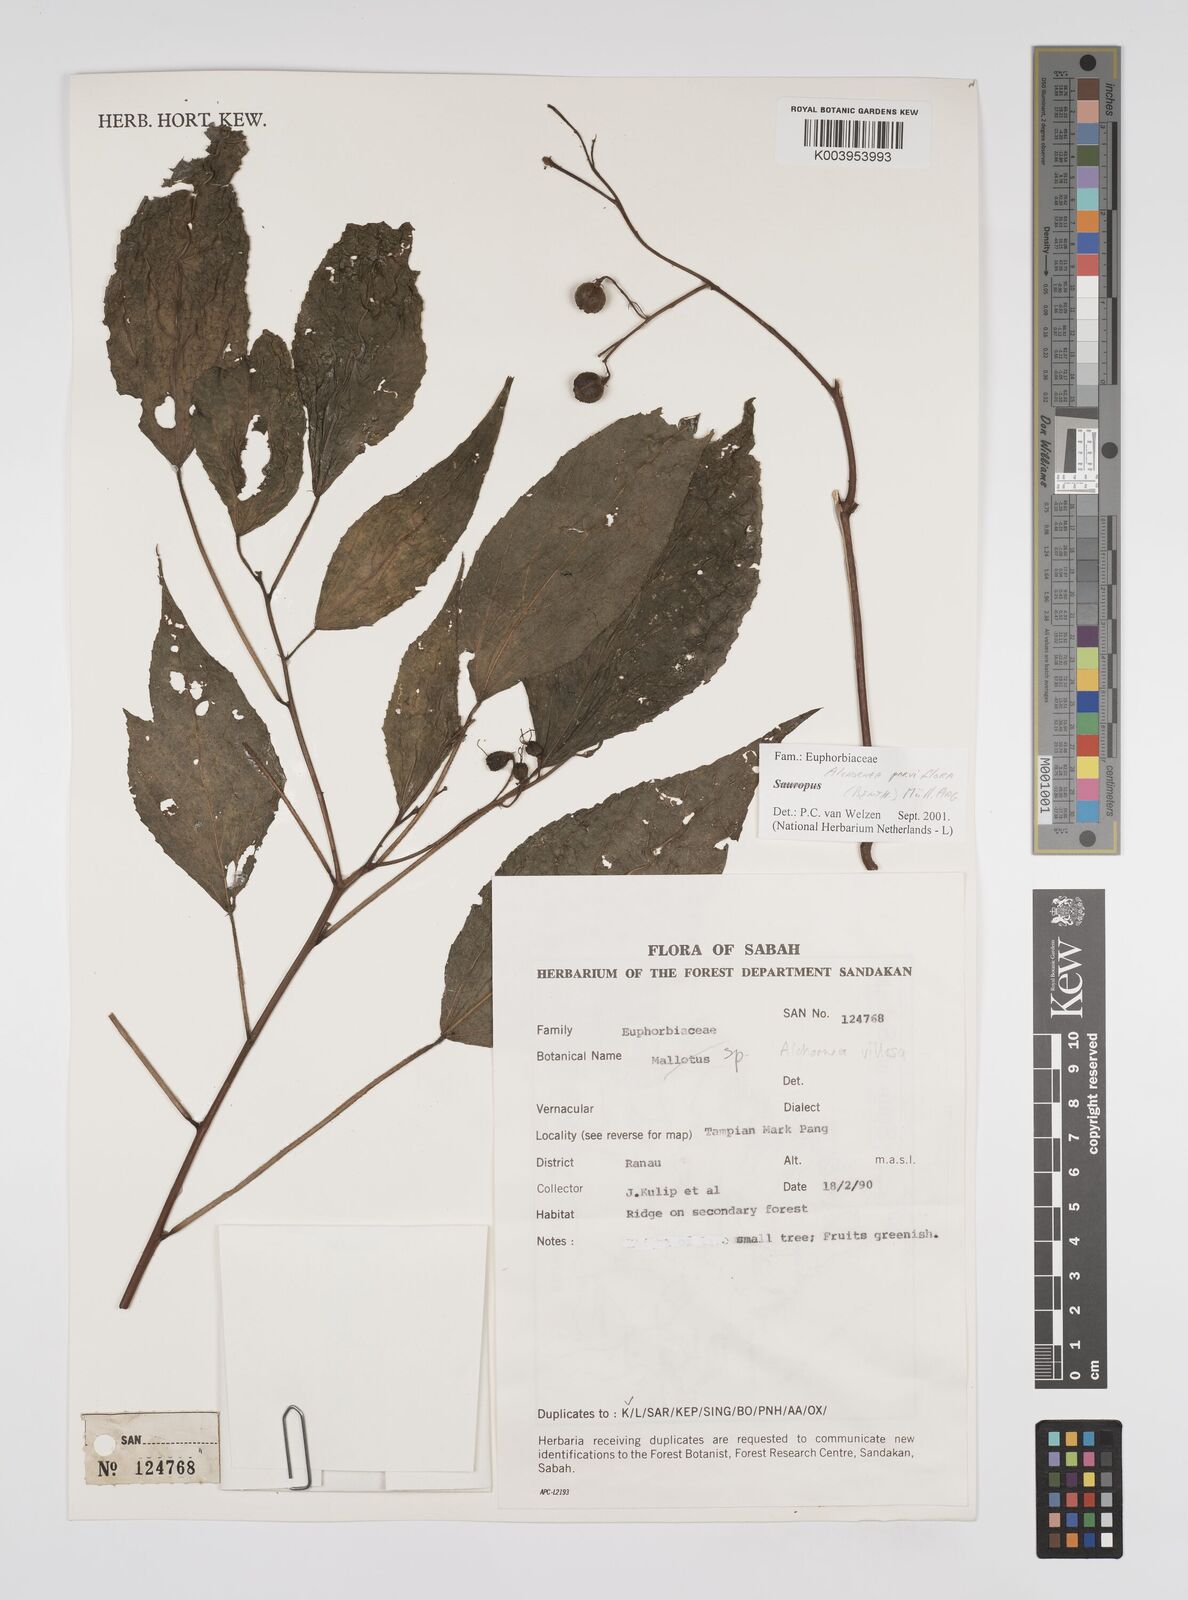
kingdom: Plantae
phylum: Tracheophyta
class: Magnoliopsida
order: Malpighiales
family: Euphorbiaceae
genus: Alchornea
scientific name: Alchornea parviflora
